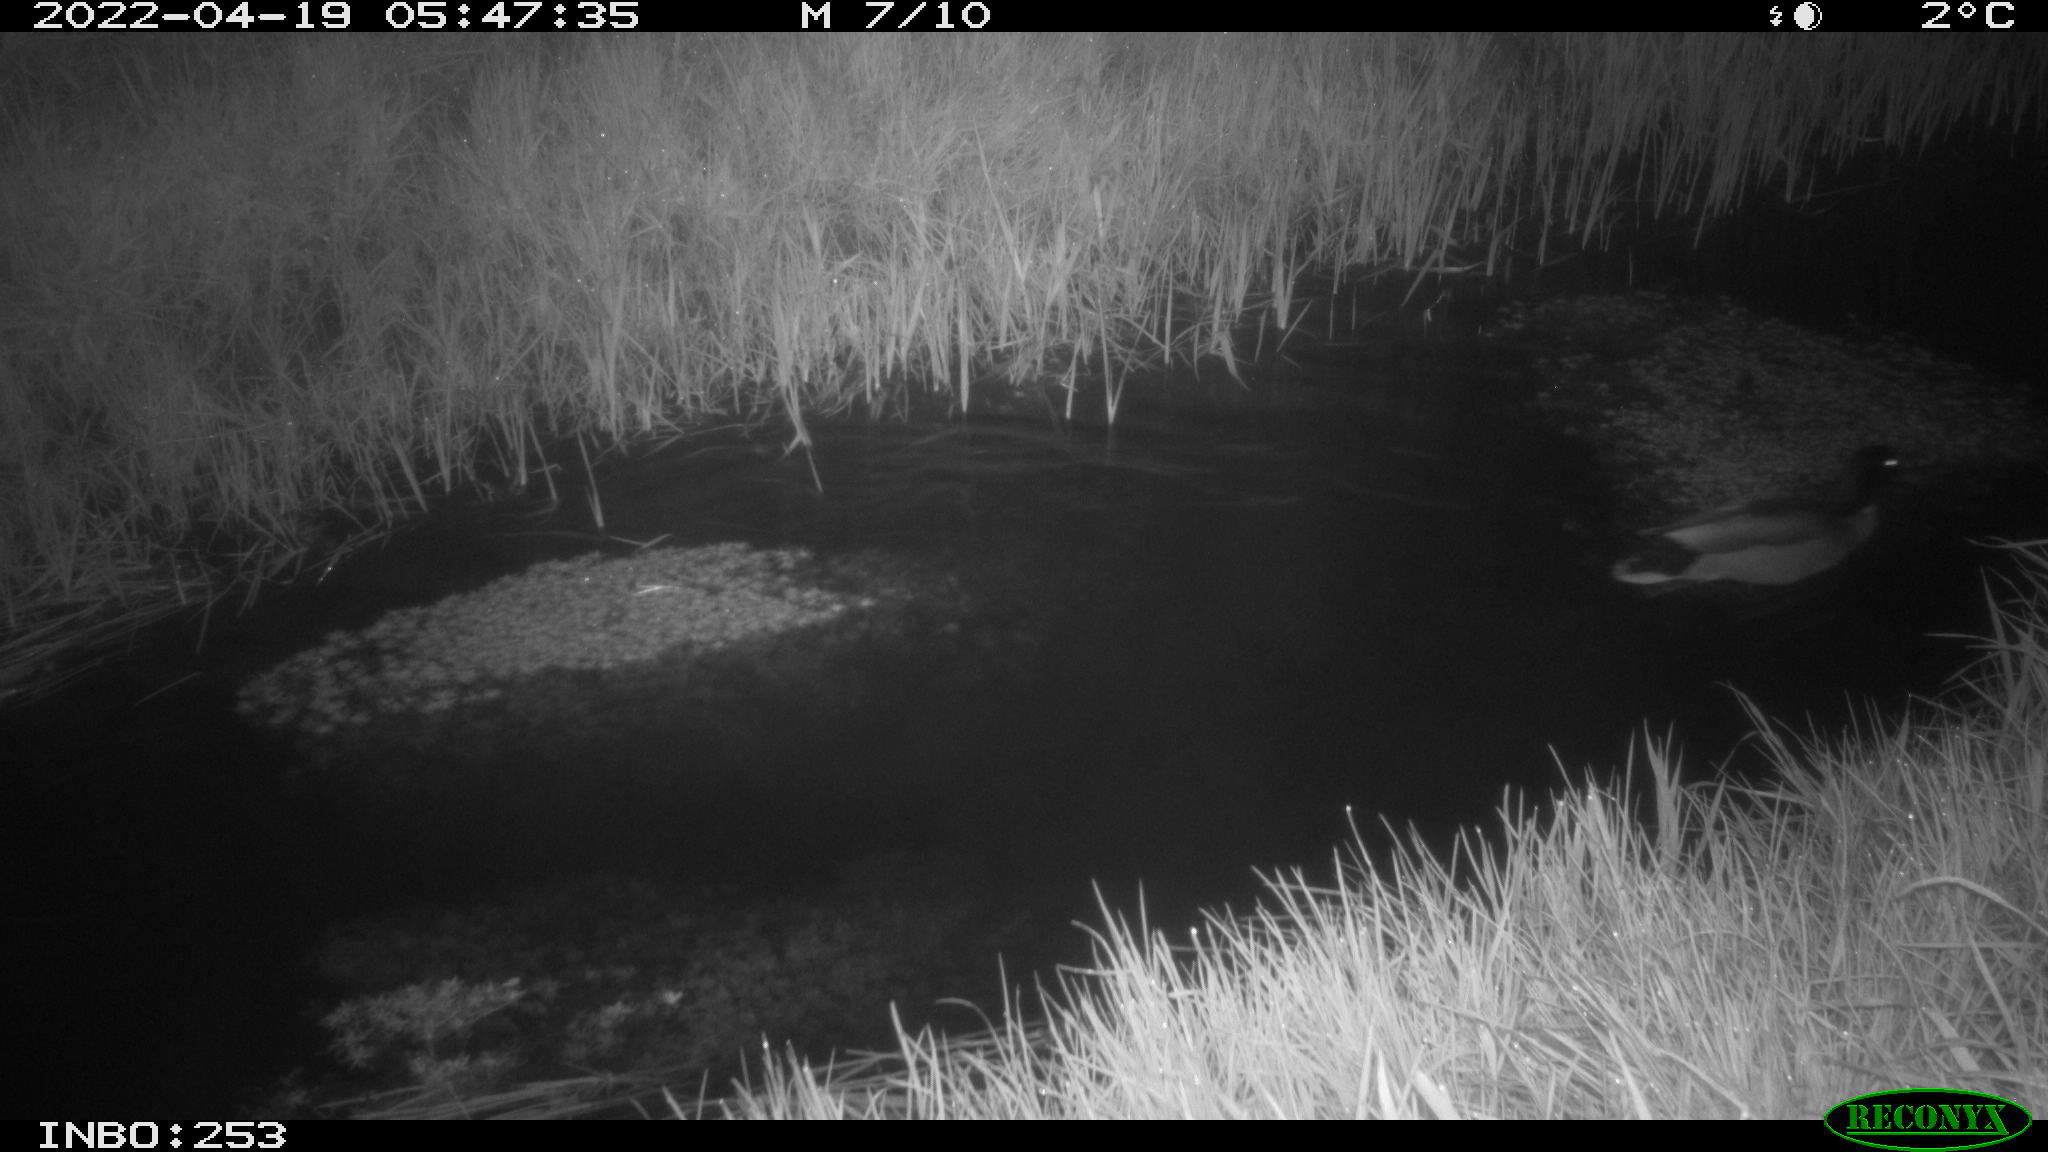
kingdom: Animalia
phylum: Chordata
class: Aves
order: Anseriformes
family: Anatidae
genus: Anas
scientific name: Anas platyrhynchos
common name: Mallard
